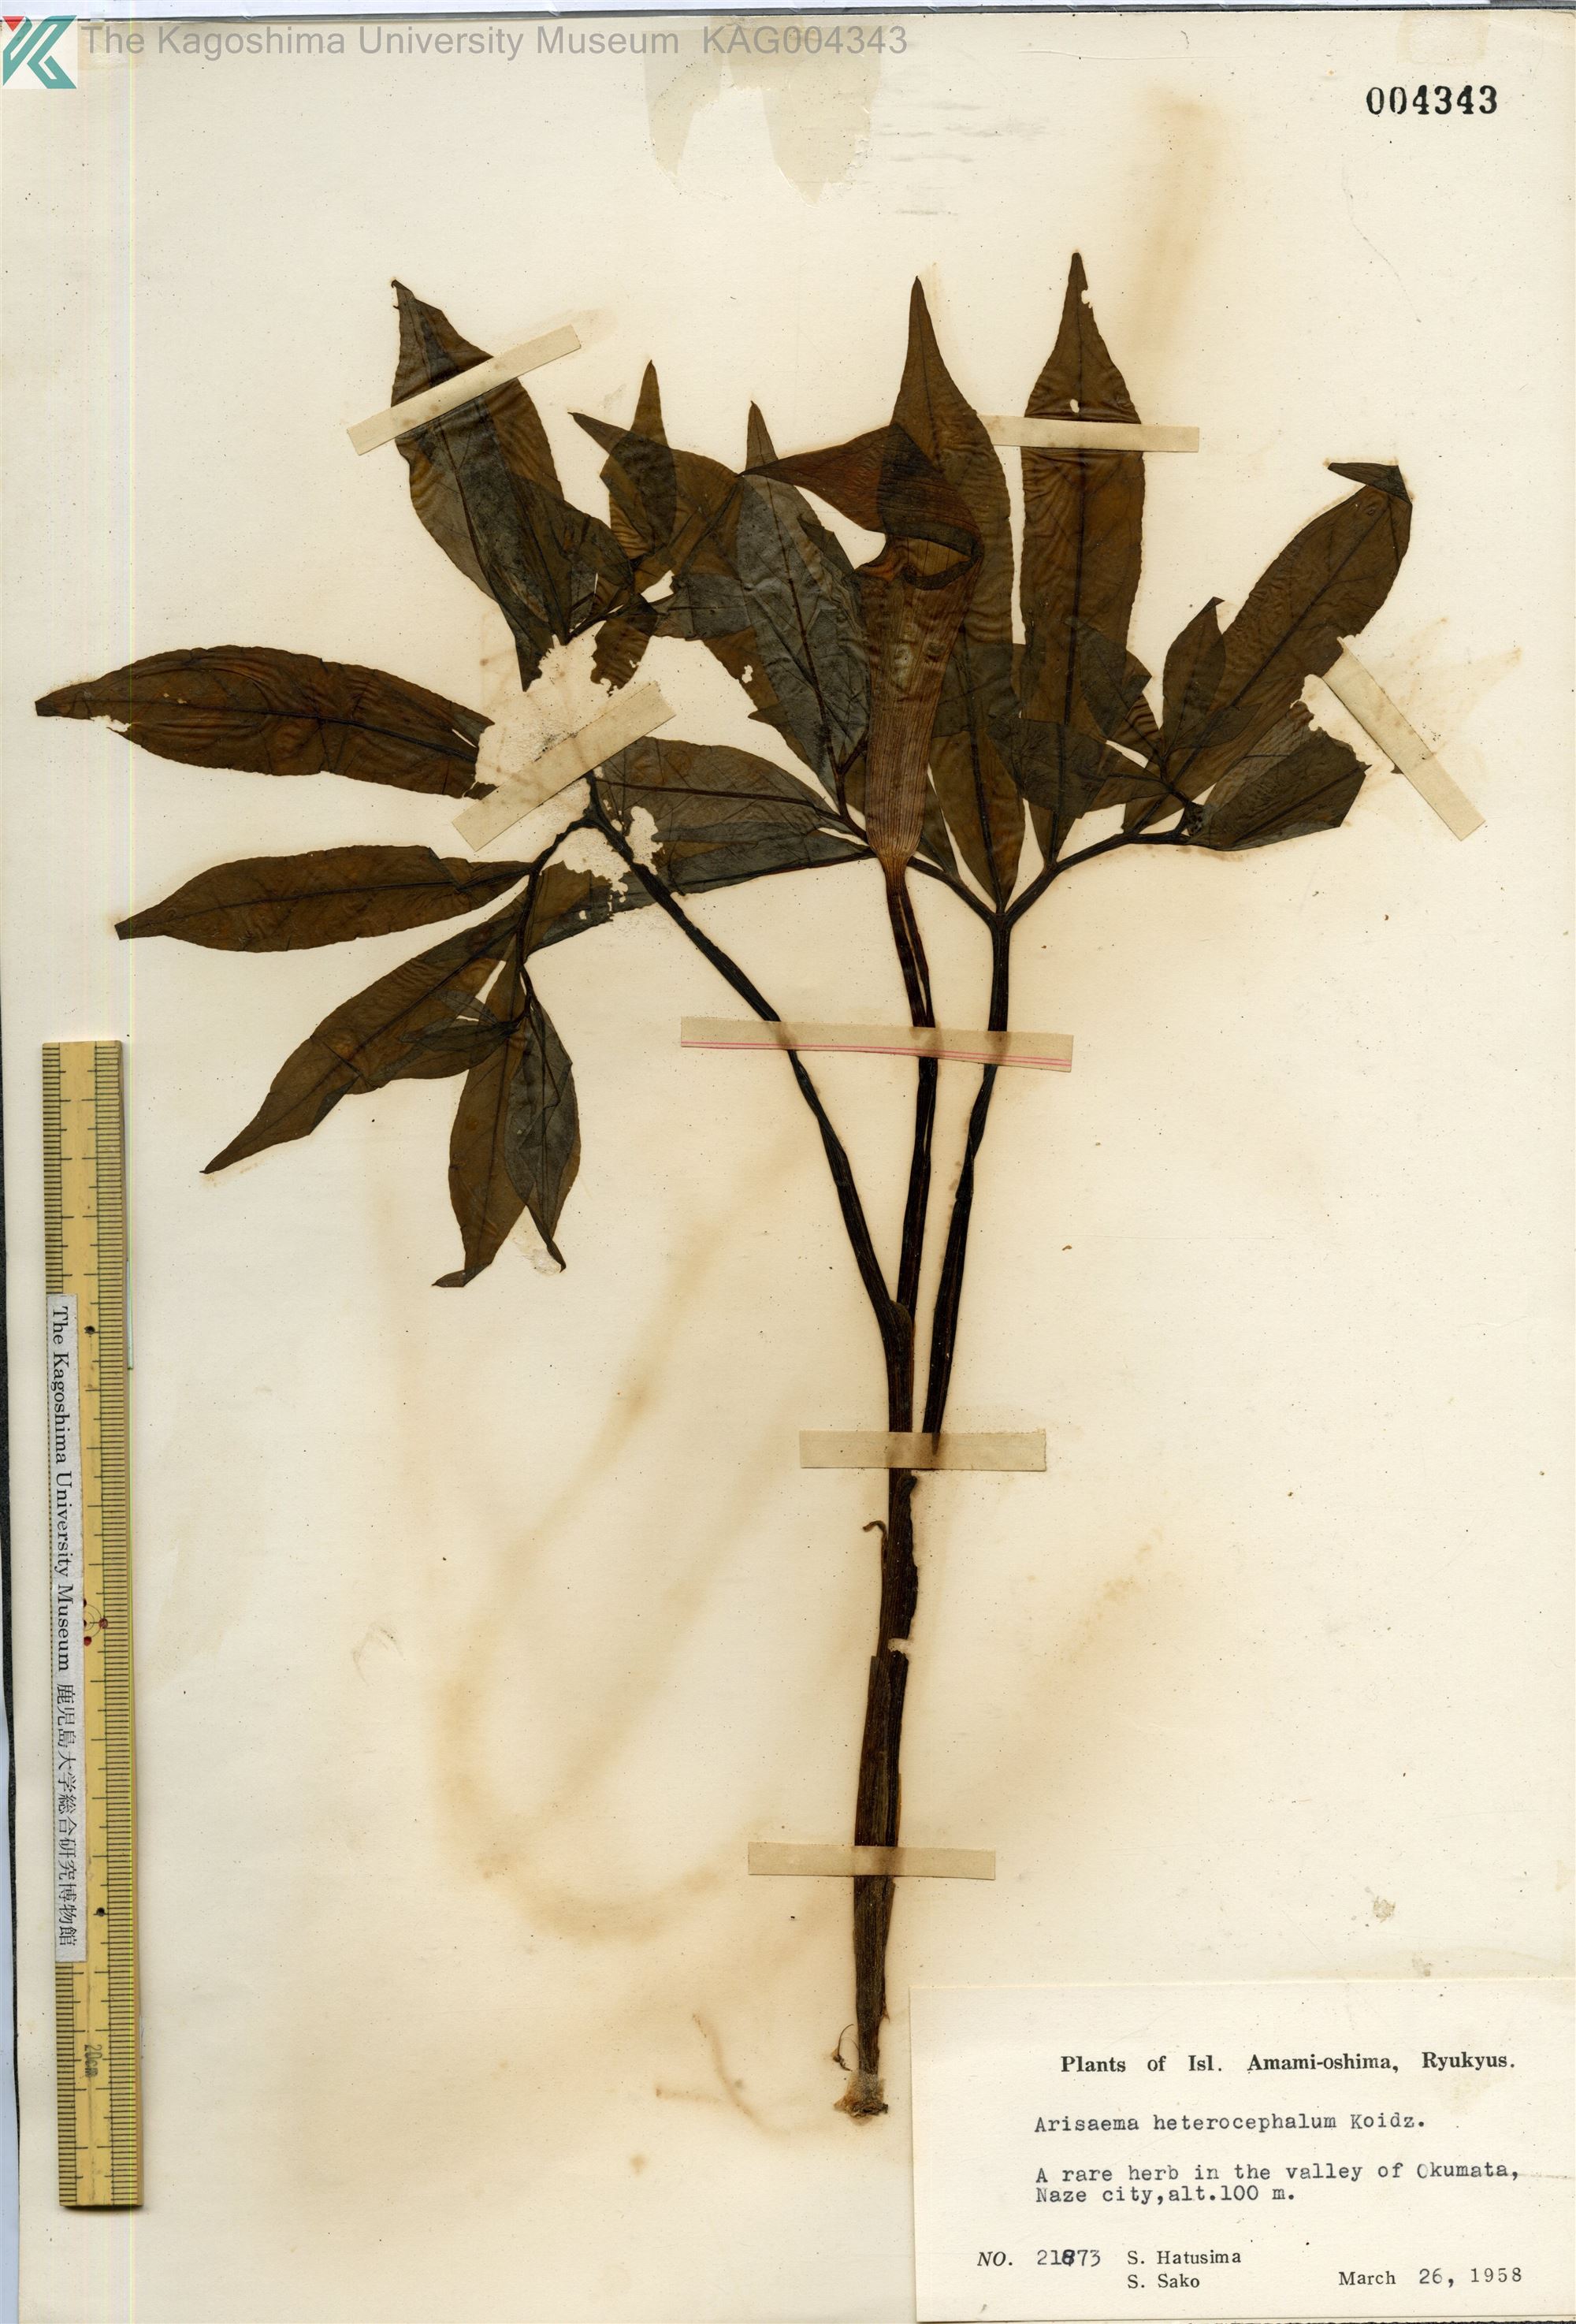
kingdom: Plantae
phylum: Tracheophyta
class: Liliopsida
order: Alismatales
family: Araceae
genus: Arisaema
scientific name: Arisaema heterocephalum
